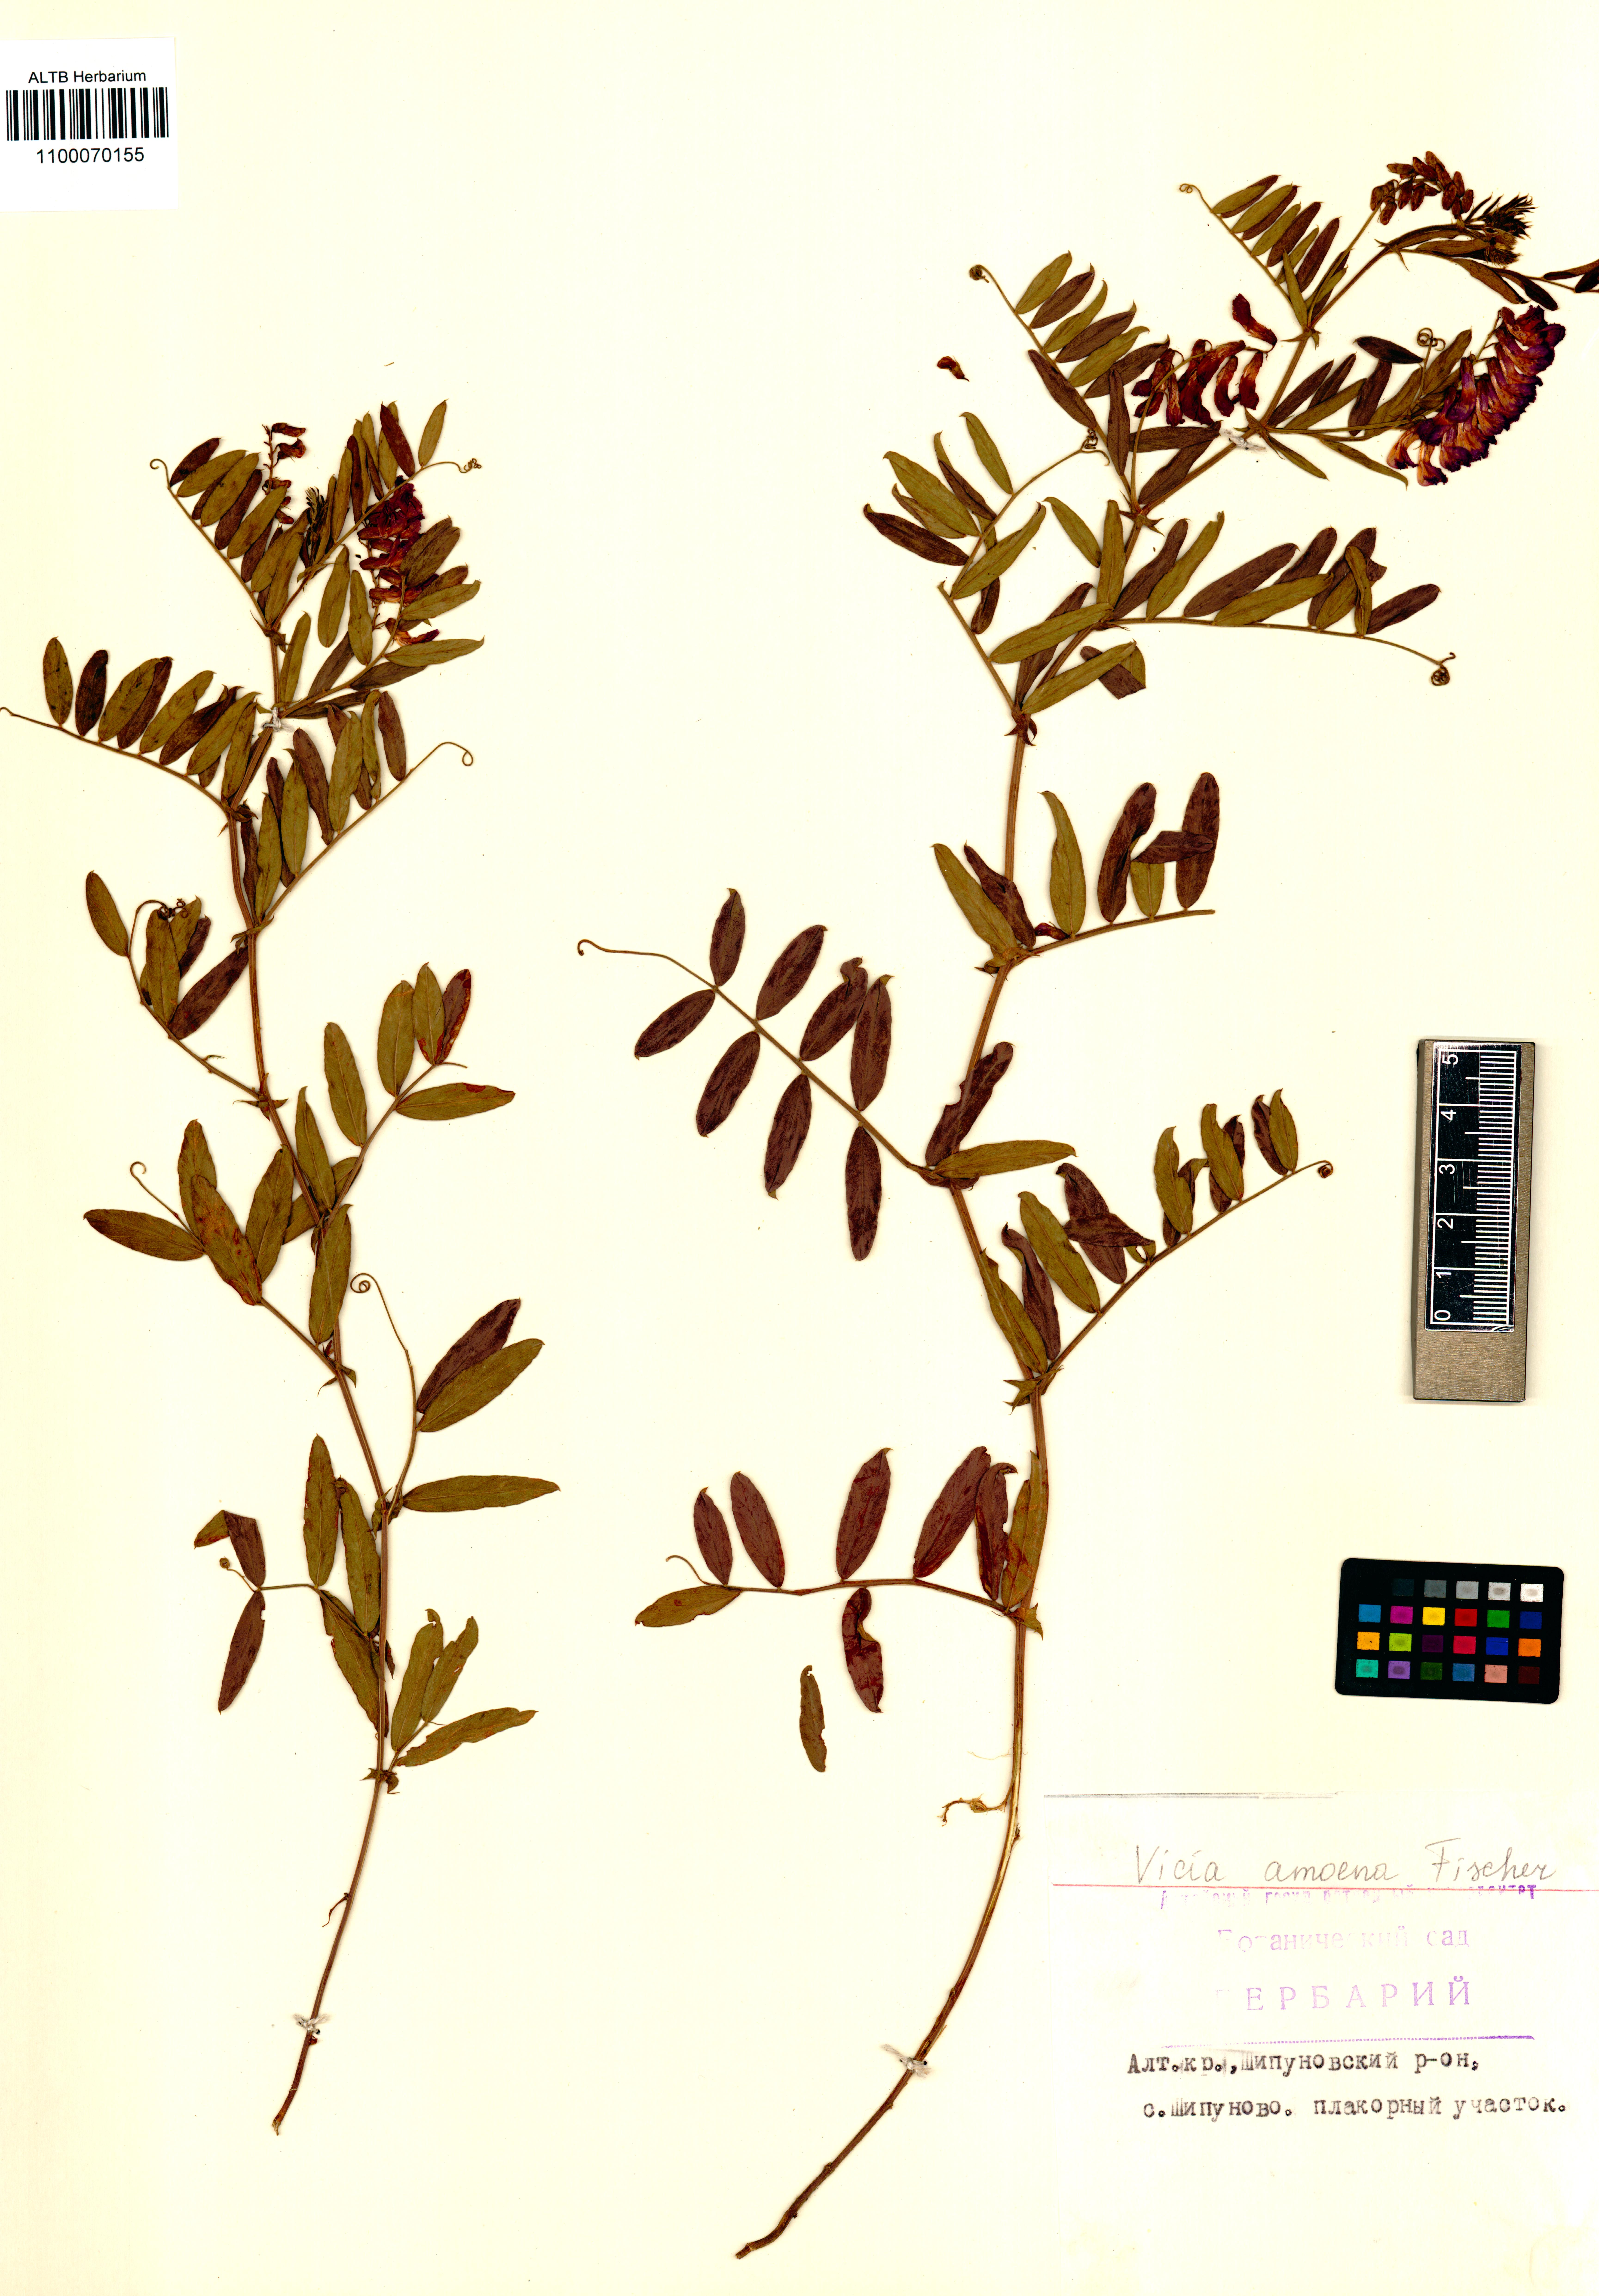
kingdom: Plantae
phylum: Tracheophyta
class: Magnoliopsida
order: Fabales
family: Fabaceae
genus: Vicia
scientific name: Vicia amoena
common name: Cheder ebs
